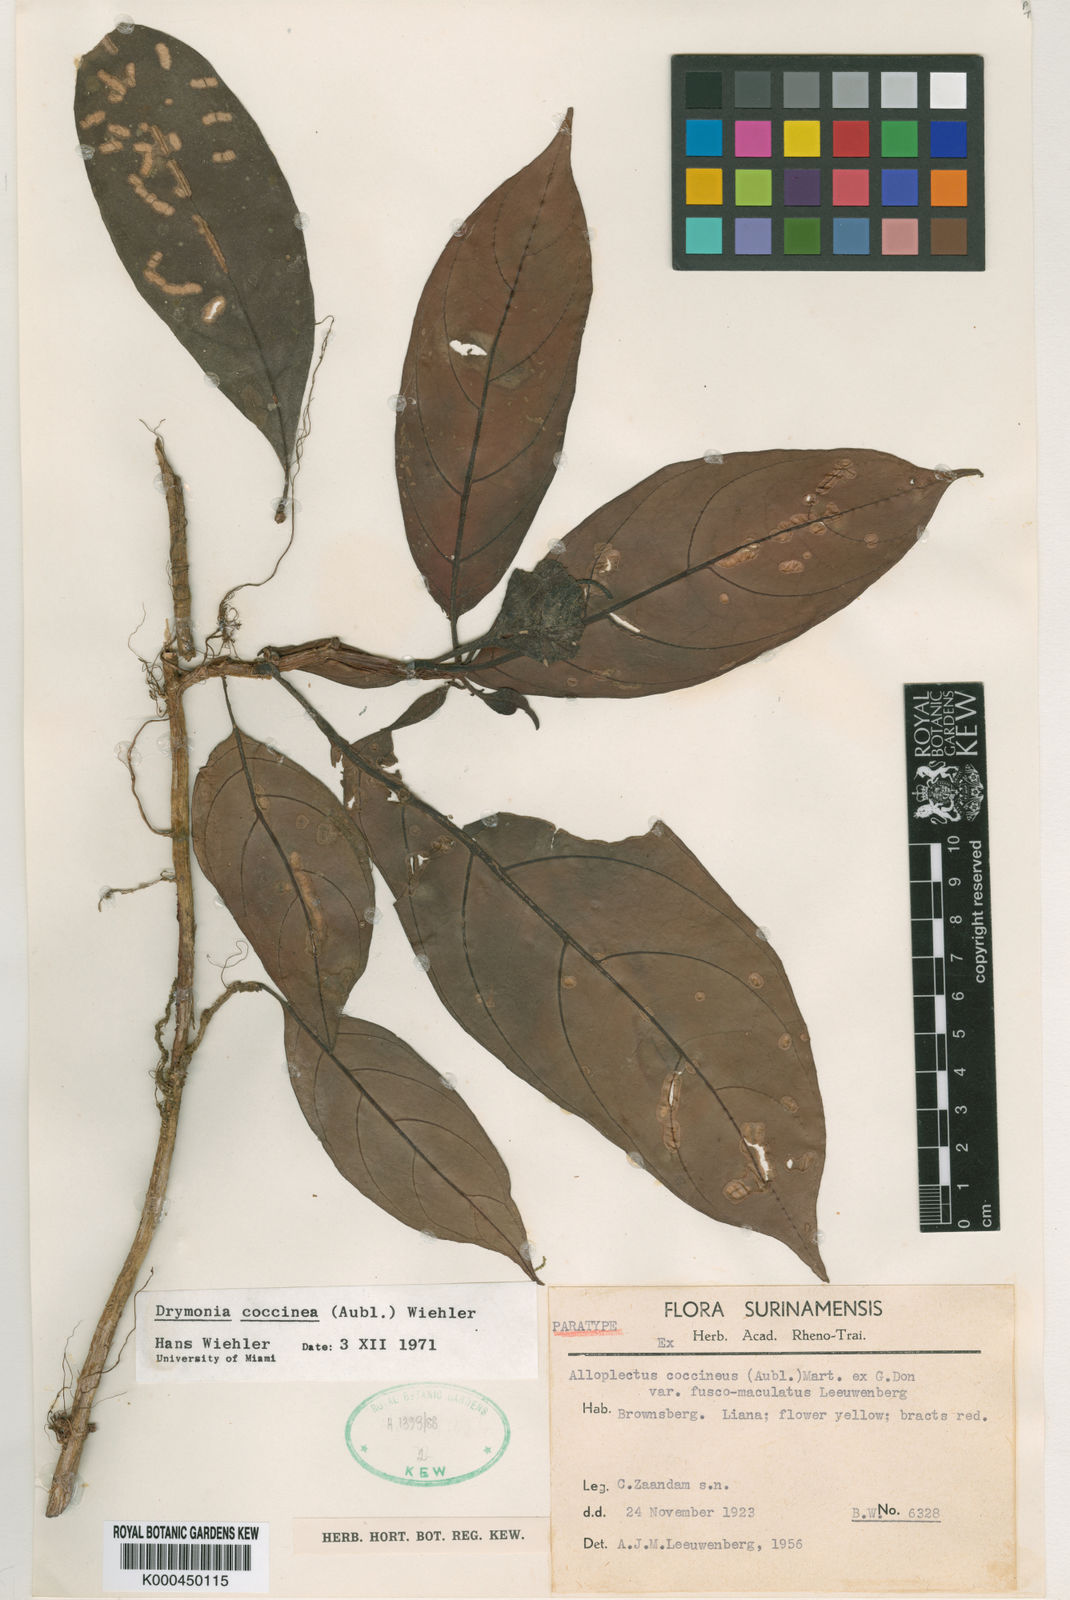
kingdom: Plantae
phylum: Tracheophyta
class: Magnoliopsida
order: Lamiales
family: Gesneriaceae
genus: Drymonia
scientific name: Drymonia coccinea
